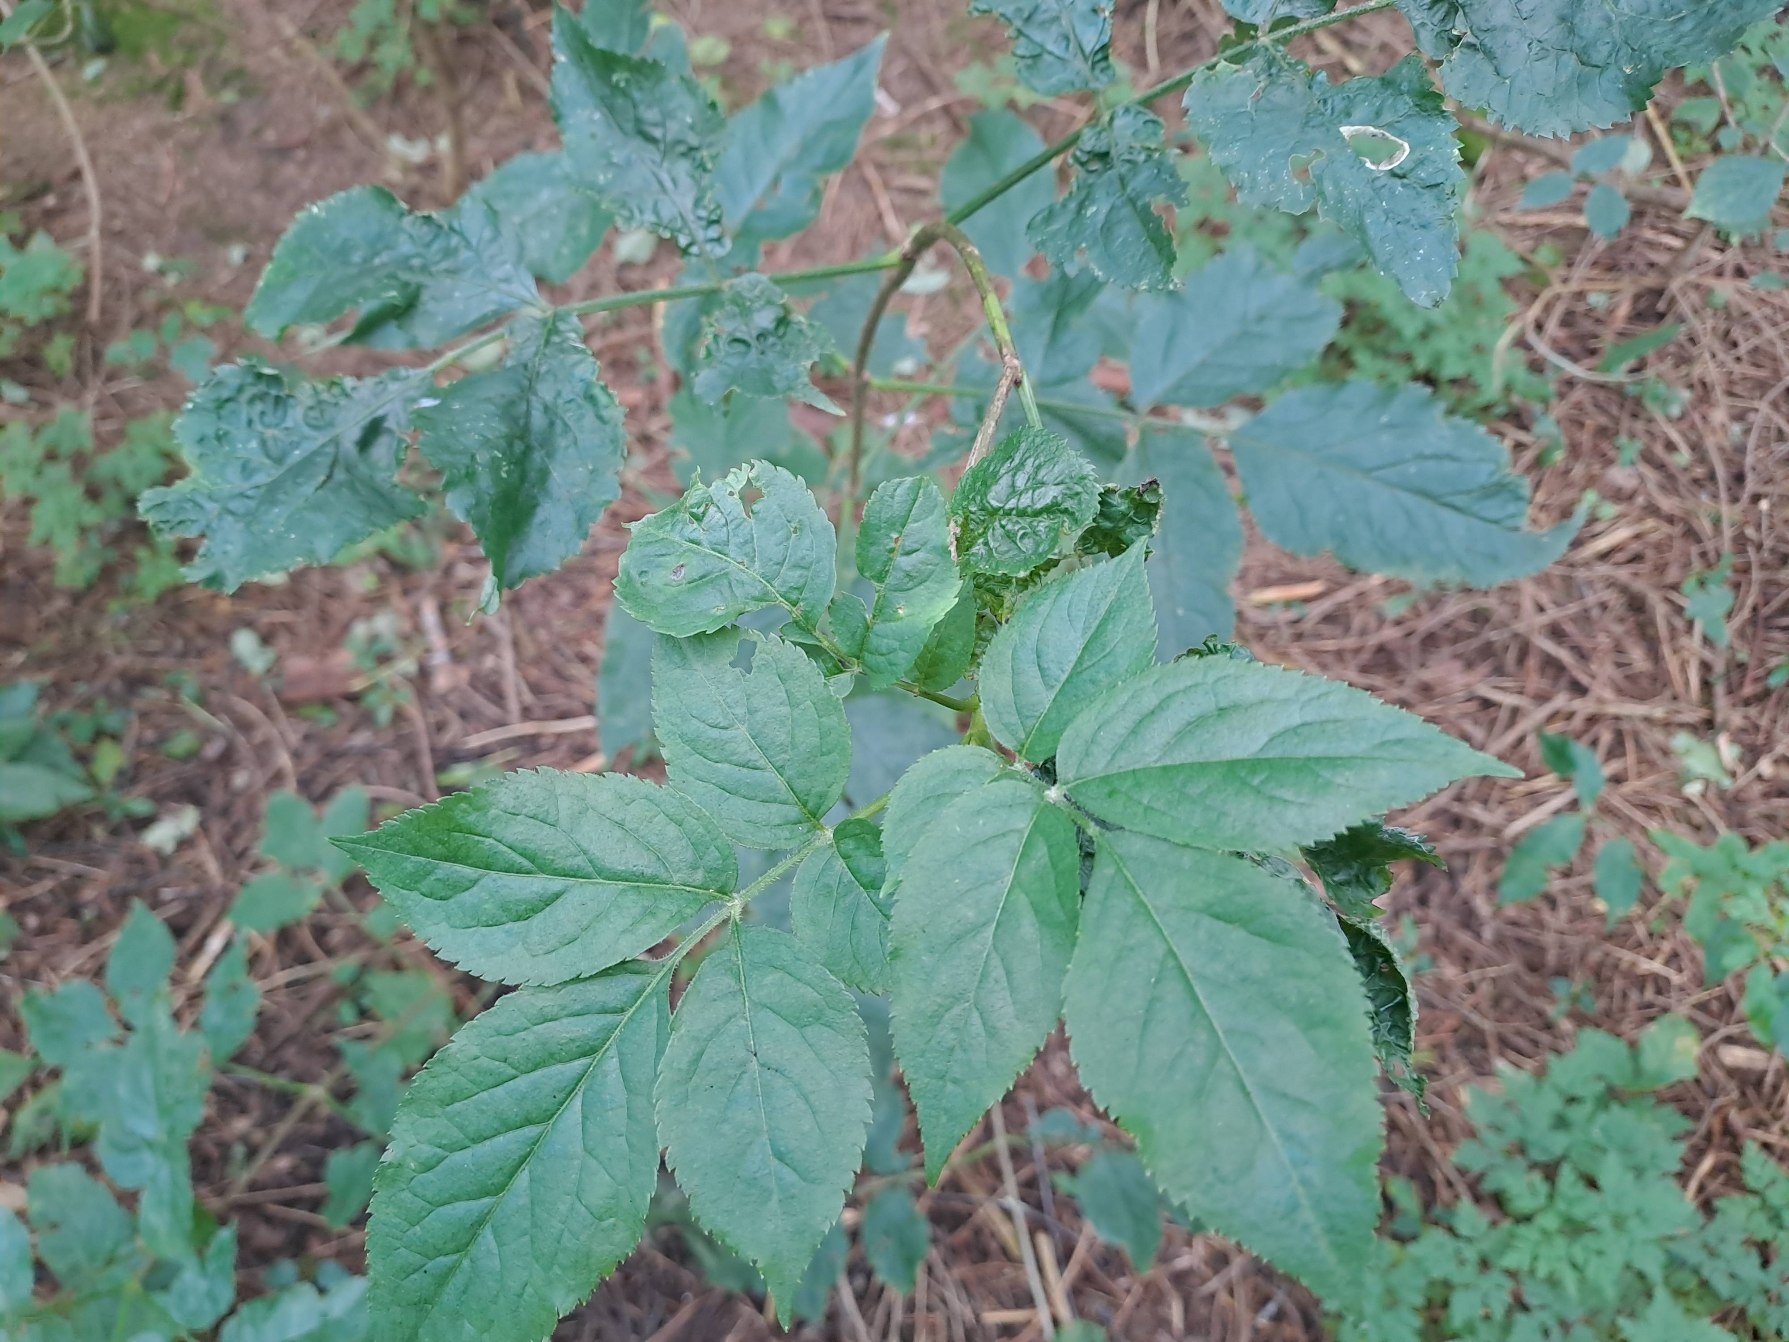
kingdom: Plantae
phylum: Tracheophyta
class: Magnoliopsida
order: Dipsacales
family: Viburnaceae
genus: Sambucus
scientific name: Sambucus nigra
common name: Almindelig hyld
